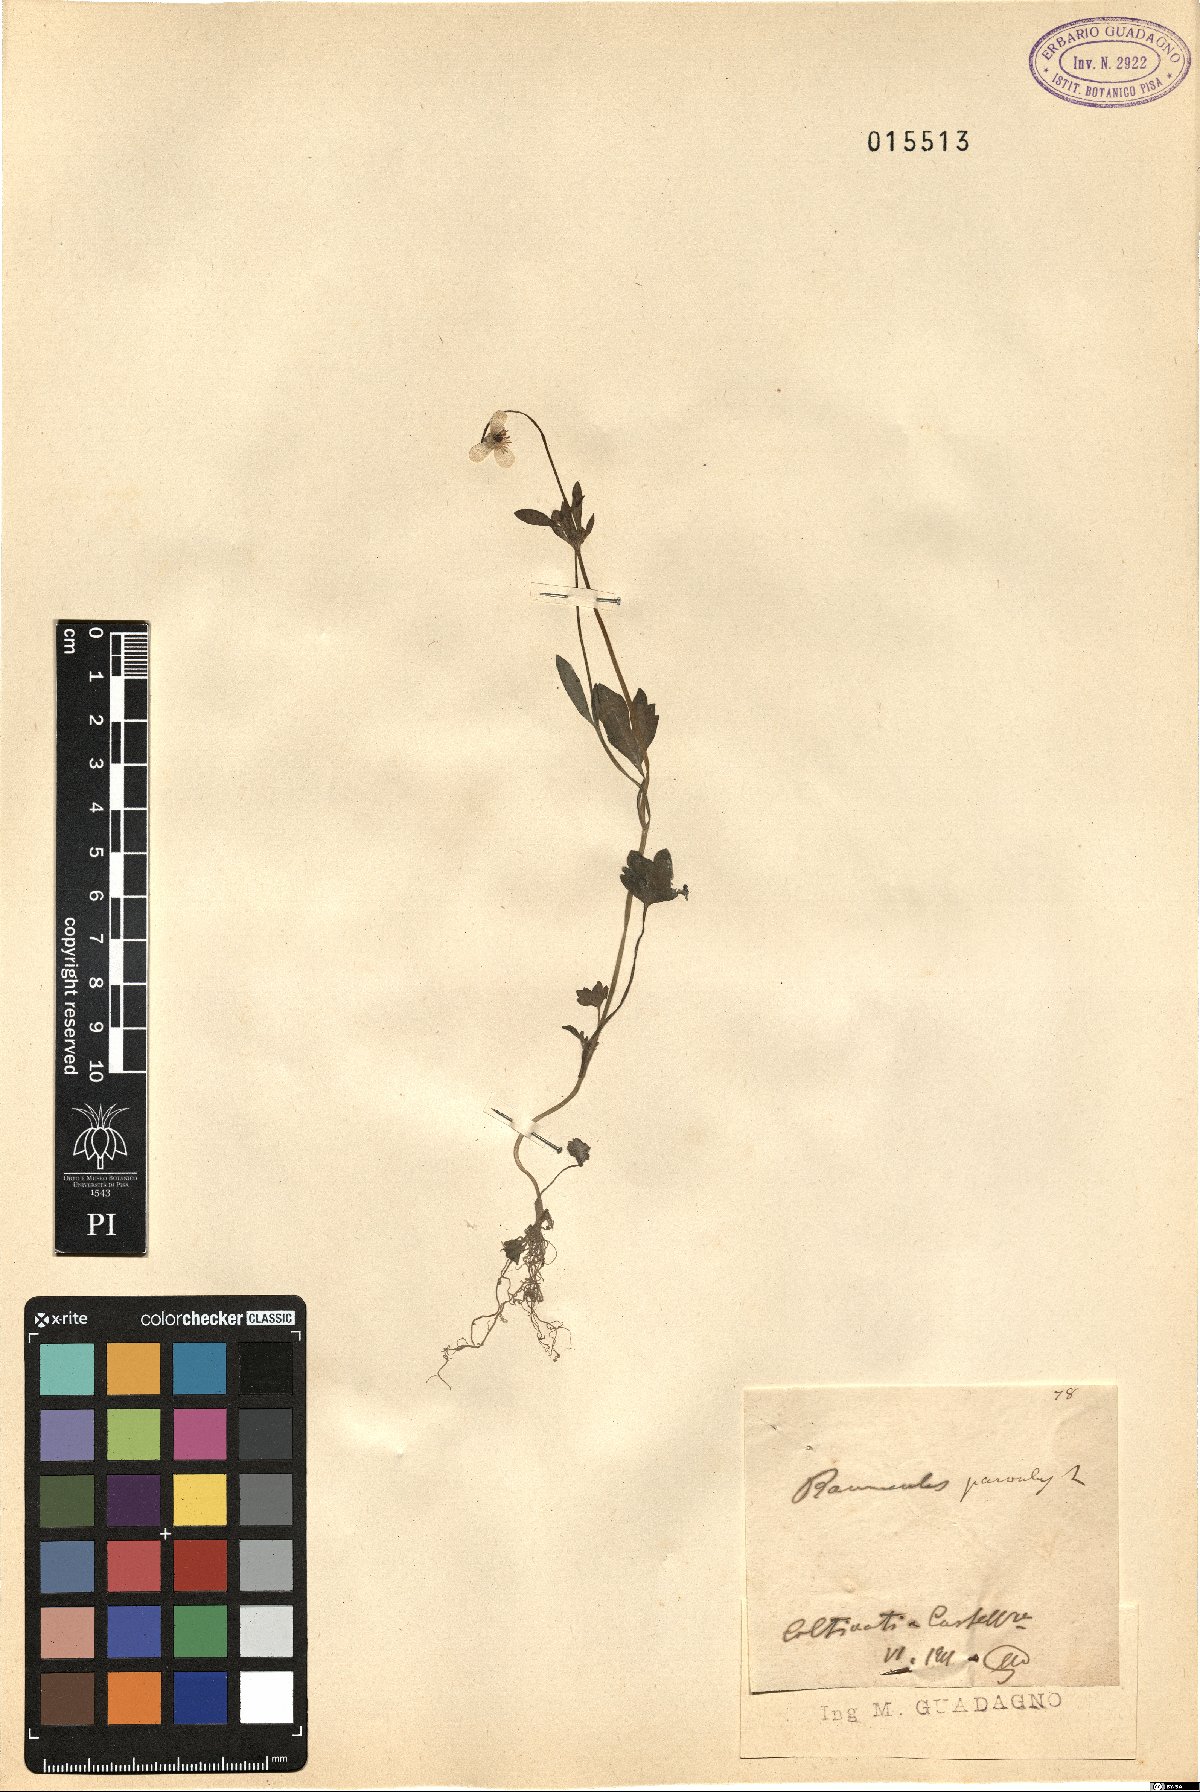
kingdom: Plantae
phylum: Tracheophyta
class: Magnoliopsida
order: Ranunculales
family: Ranunculaceae
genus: Ranunculus
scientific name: Ranunculus sardous
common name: Hairy buttercup
